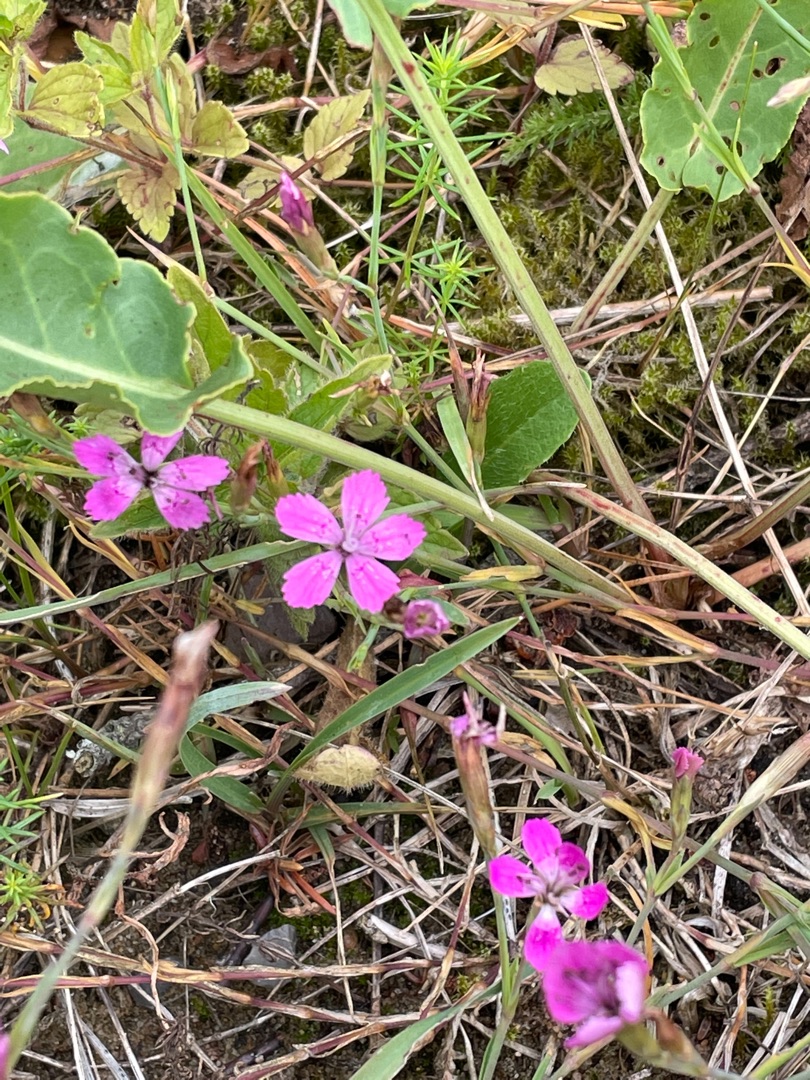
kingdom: Plantae
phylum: Tracheophyta
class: Magnoliopsida
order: Caryophyllales
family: Caryophyllaceae
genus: Dianthus
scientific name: Dianthus deltoides
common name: Bakke-nellike
